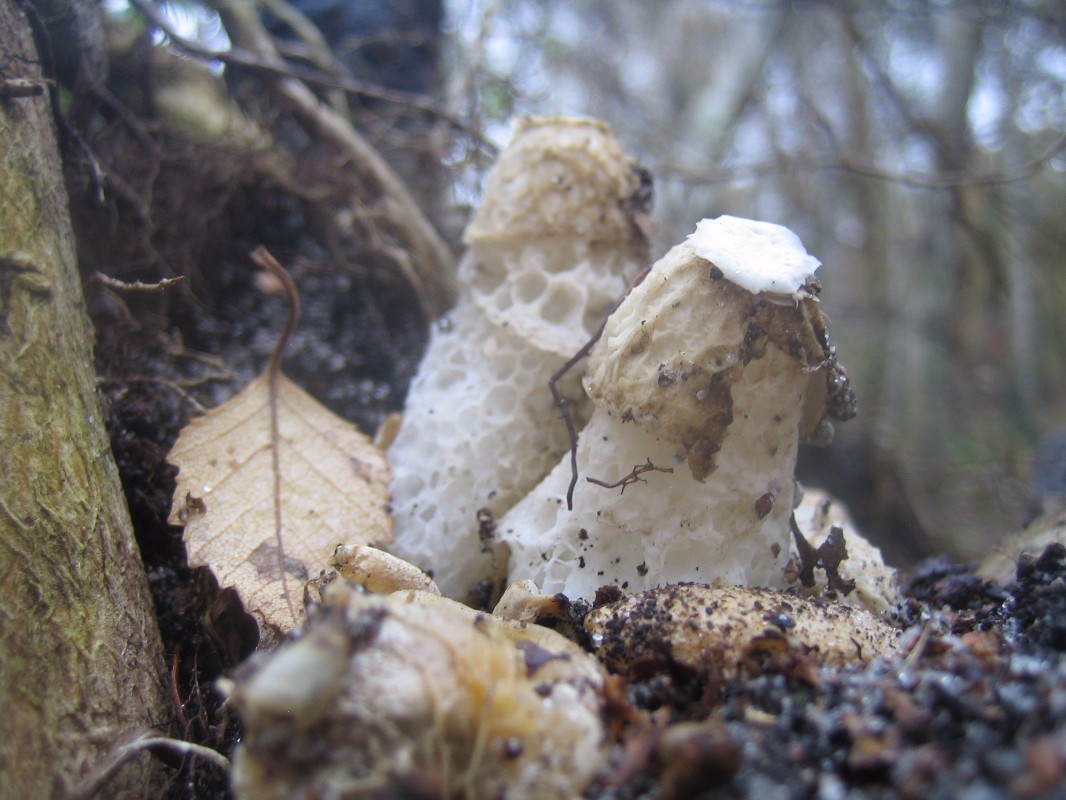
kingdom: Fungi
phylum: Basidiomycota
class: Agaricomycetes
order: Phallales
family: Phallaceae
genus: Phallus
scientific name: Phallus impudicus
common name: almindelig stinksvamp
